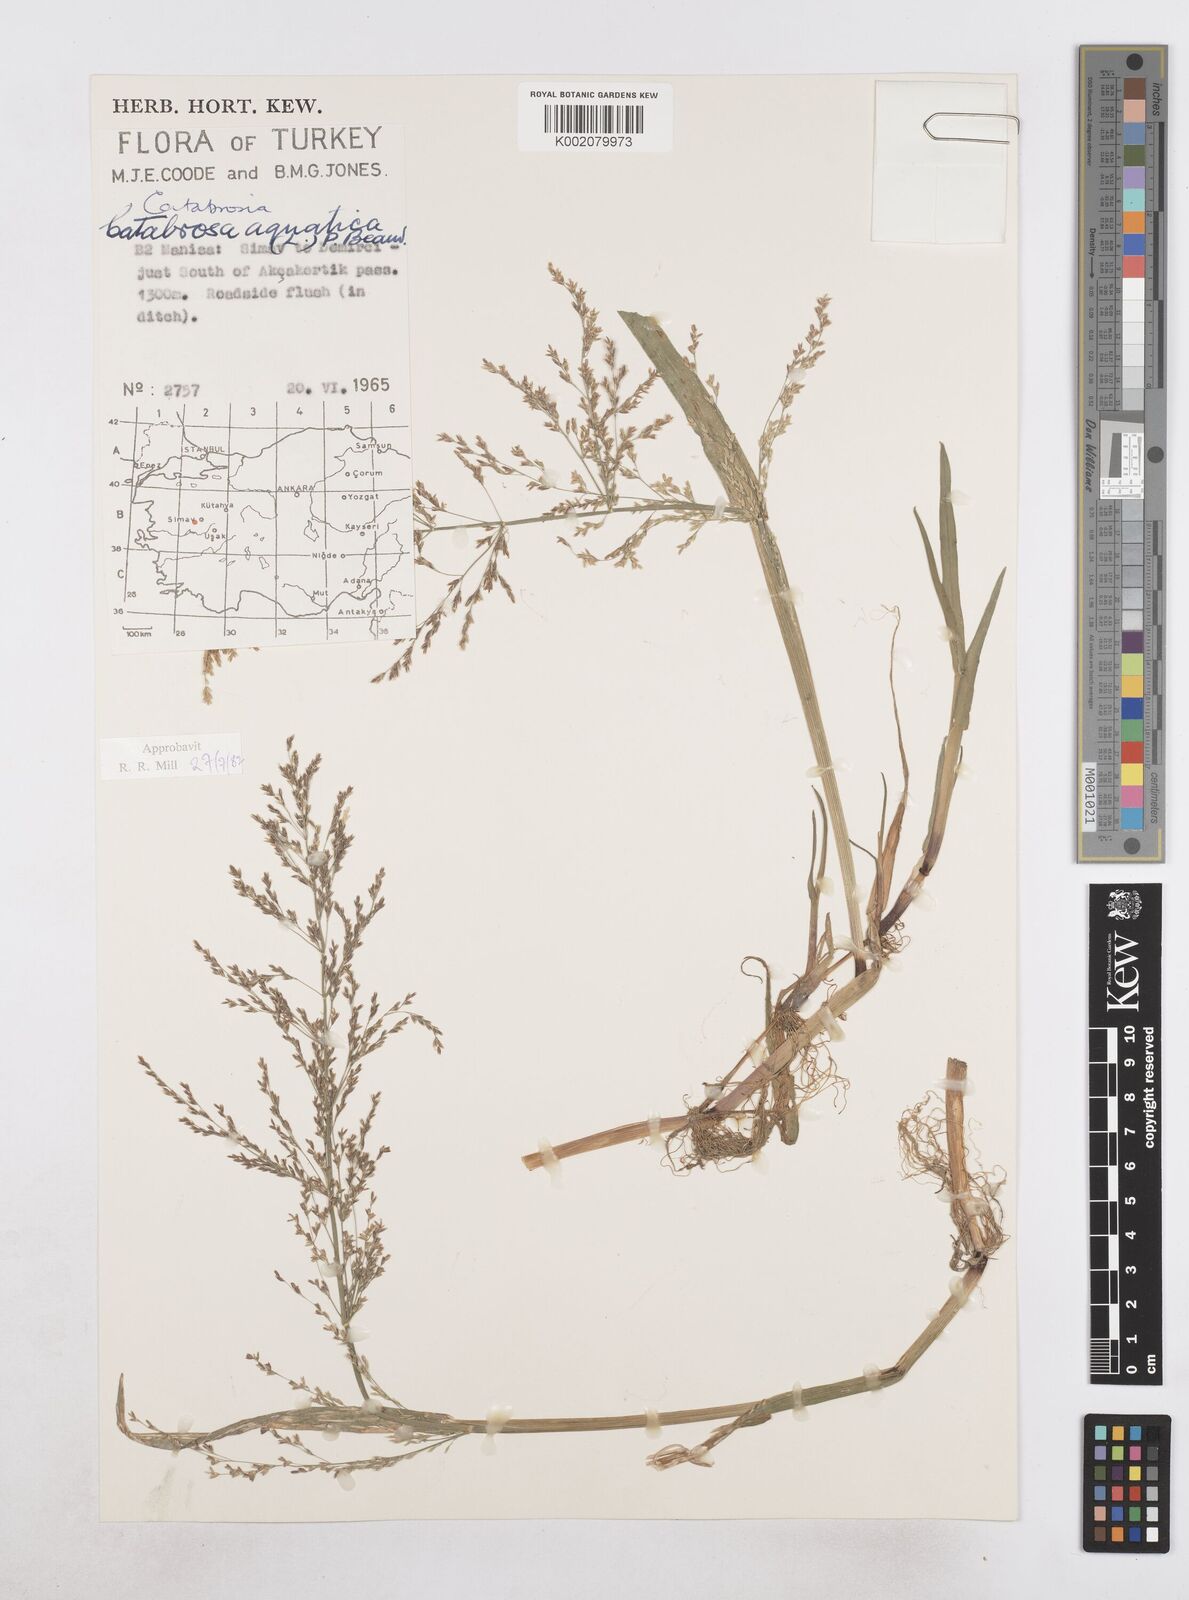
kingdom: Plantae
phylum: Tracheophyta
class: Liliopsida
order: Poales
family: Poaceae
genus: Catabrosa
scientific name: Catabrosa aquatica
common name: Whorl-grass
